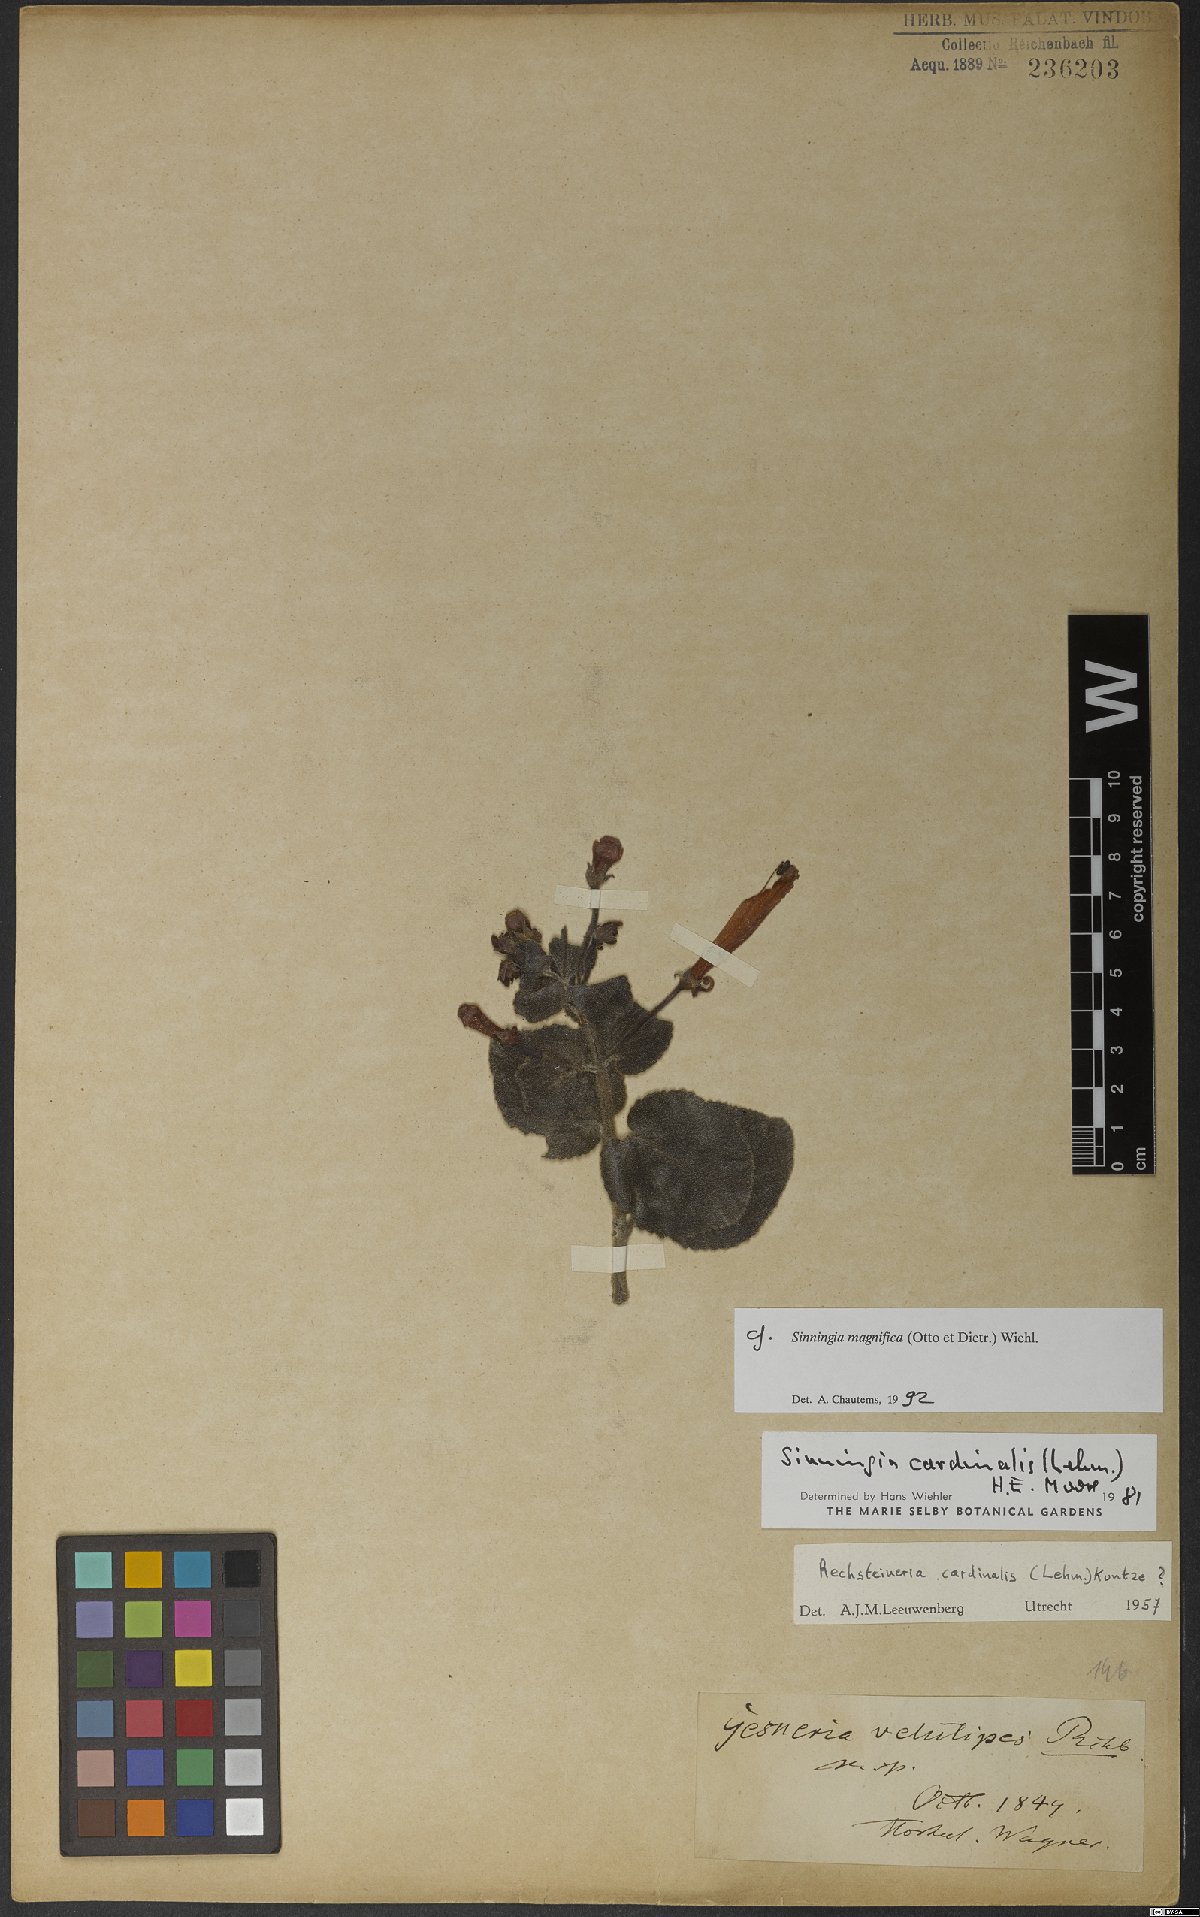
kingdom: Plantae
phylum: Tracheophyta
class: Magnoliopsida
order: Lamiales
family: Gesneriaceae
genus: Sinningia
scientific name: Sinningia magnifica
